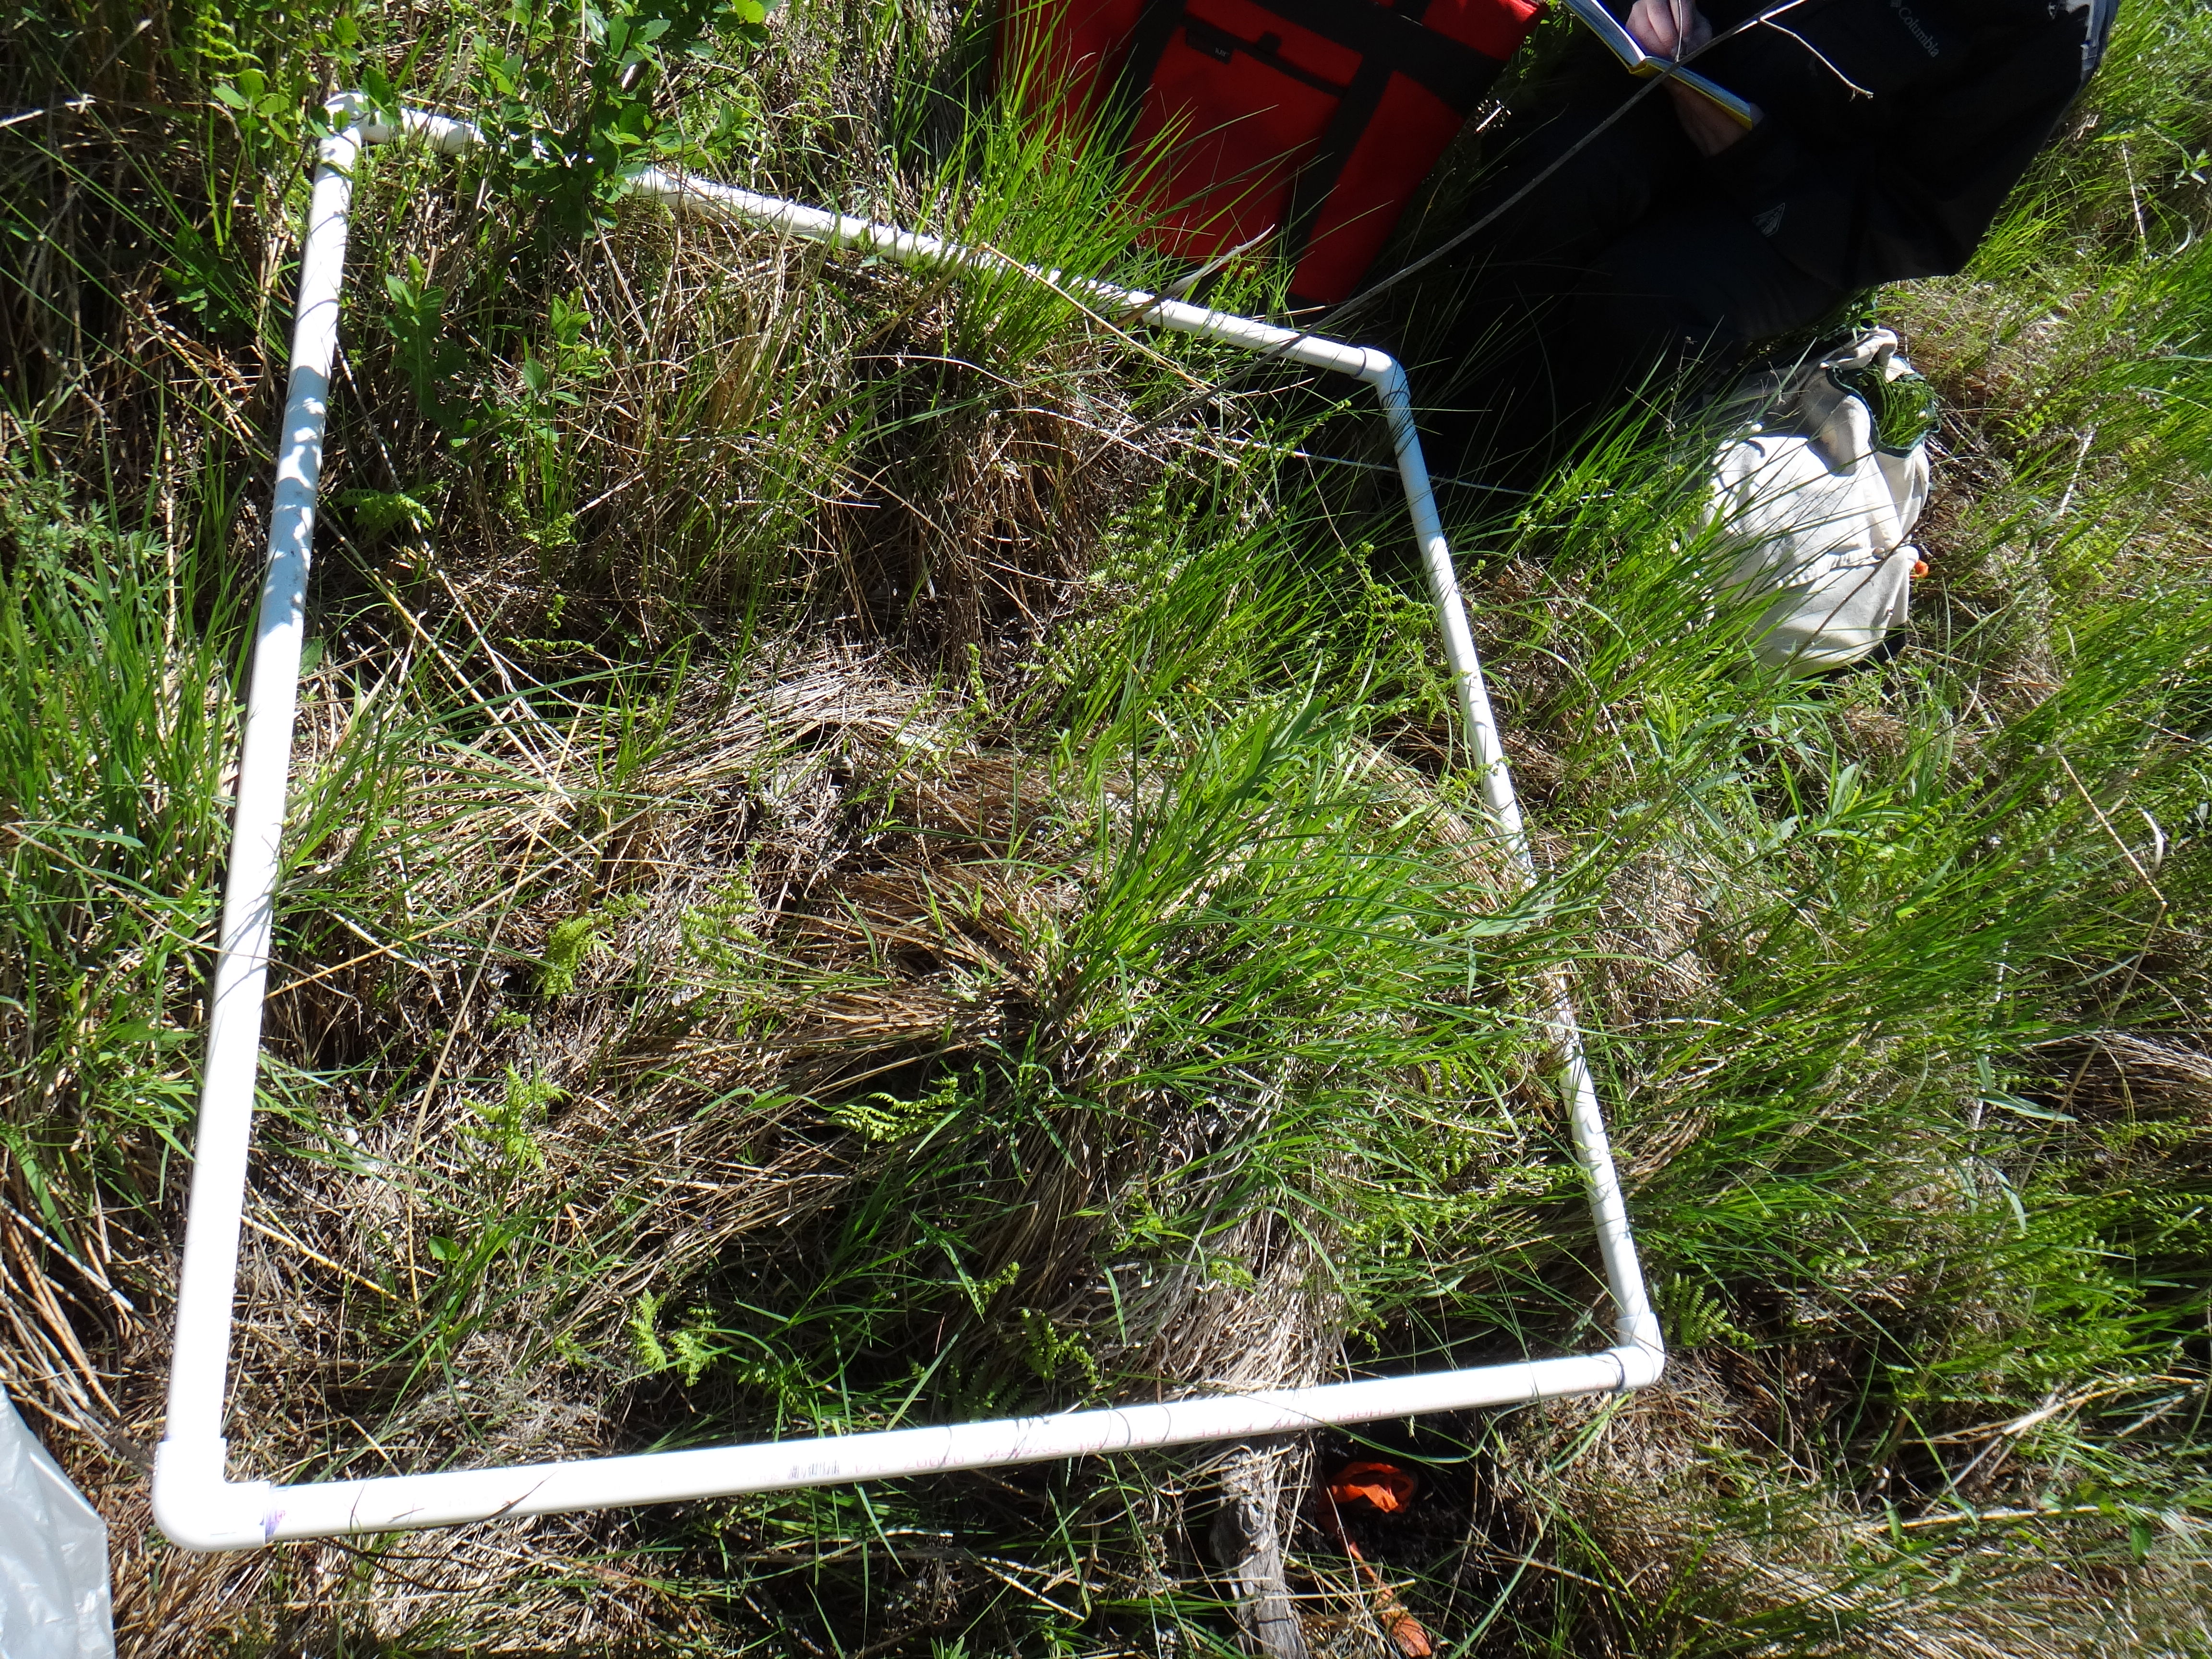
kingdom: Plantae
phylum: Tracheophyta
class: Magnoliopsida
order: Asterales
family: Asteraceae
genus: Eutrochium
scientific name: Eutrochium maculatum
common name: Spotted joe pye weed
